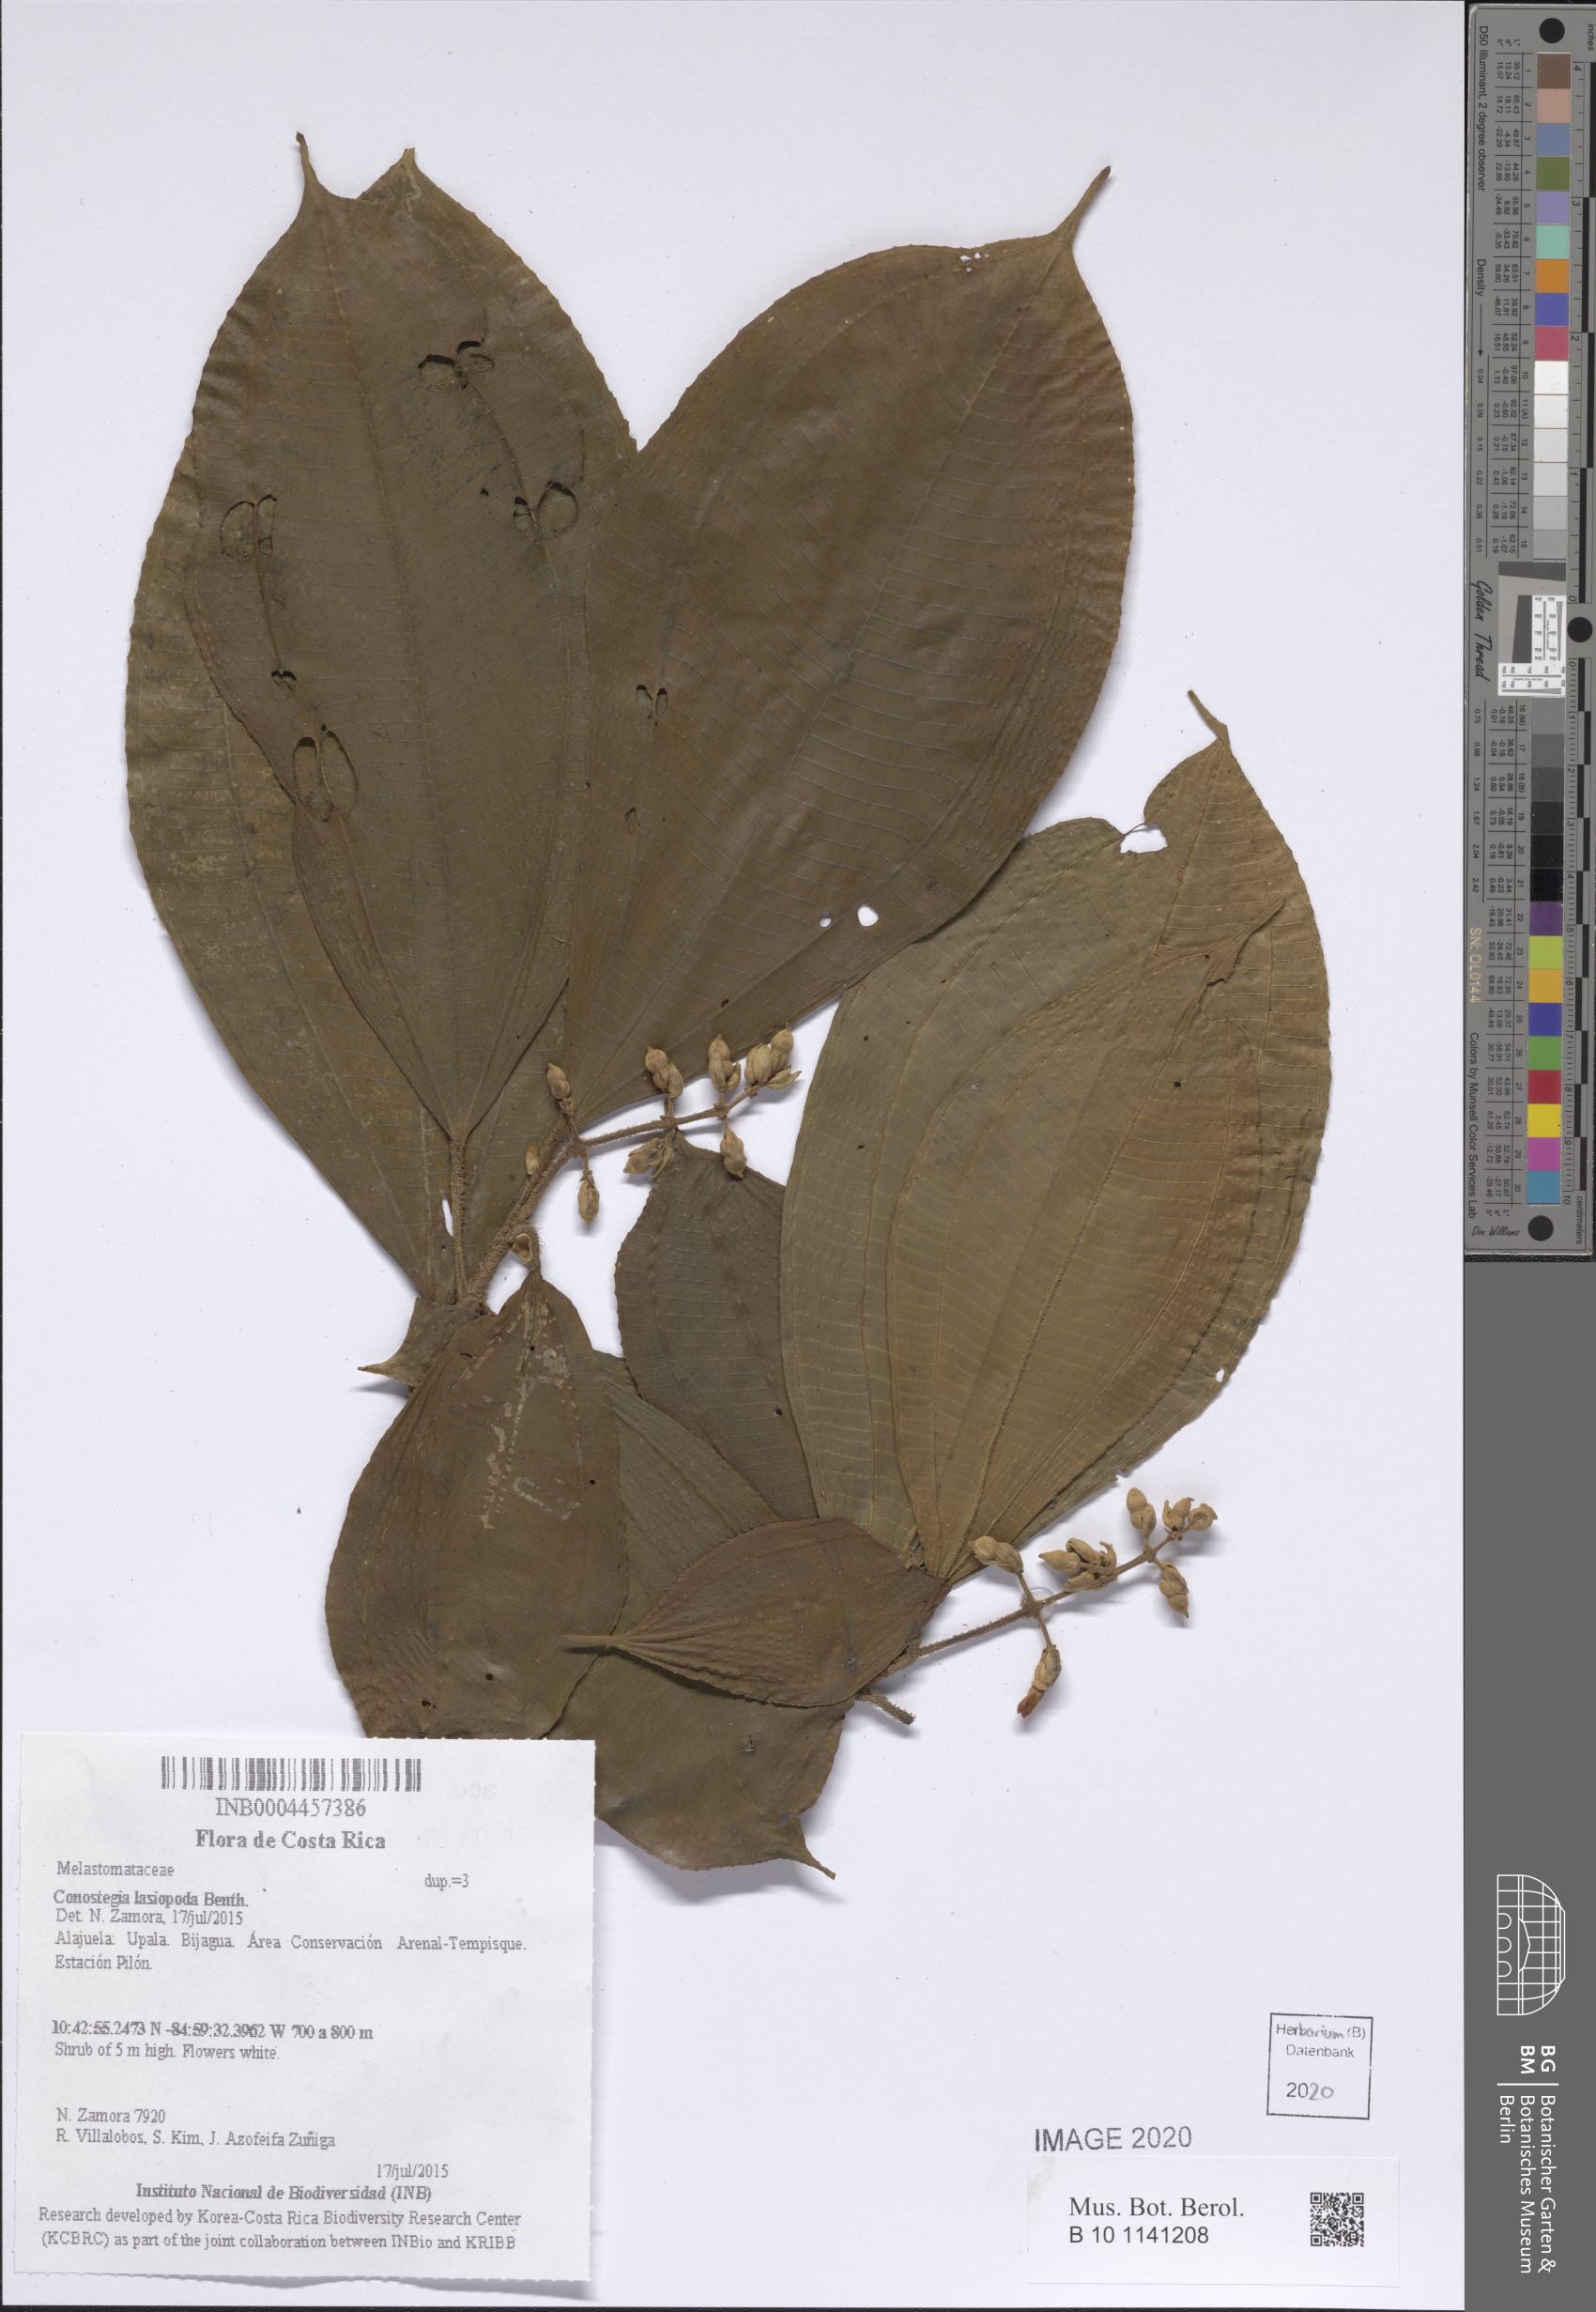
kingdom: Plantae
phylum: Tracheophyta
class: Magnoliopsida
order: Myrtales
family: Melastomataceae
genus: Miconia
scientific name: Miconia lasiopoda
